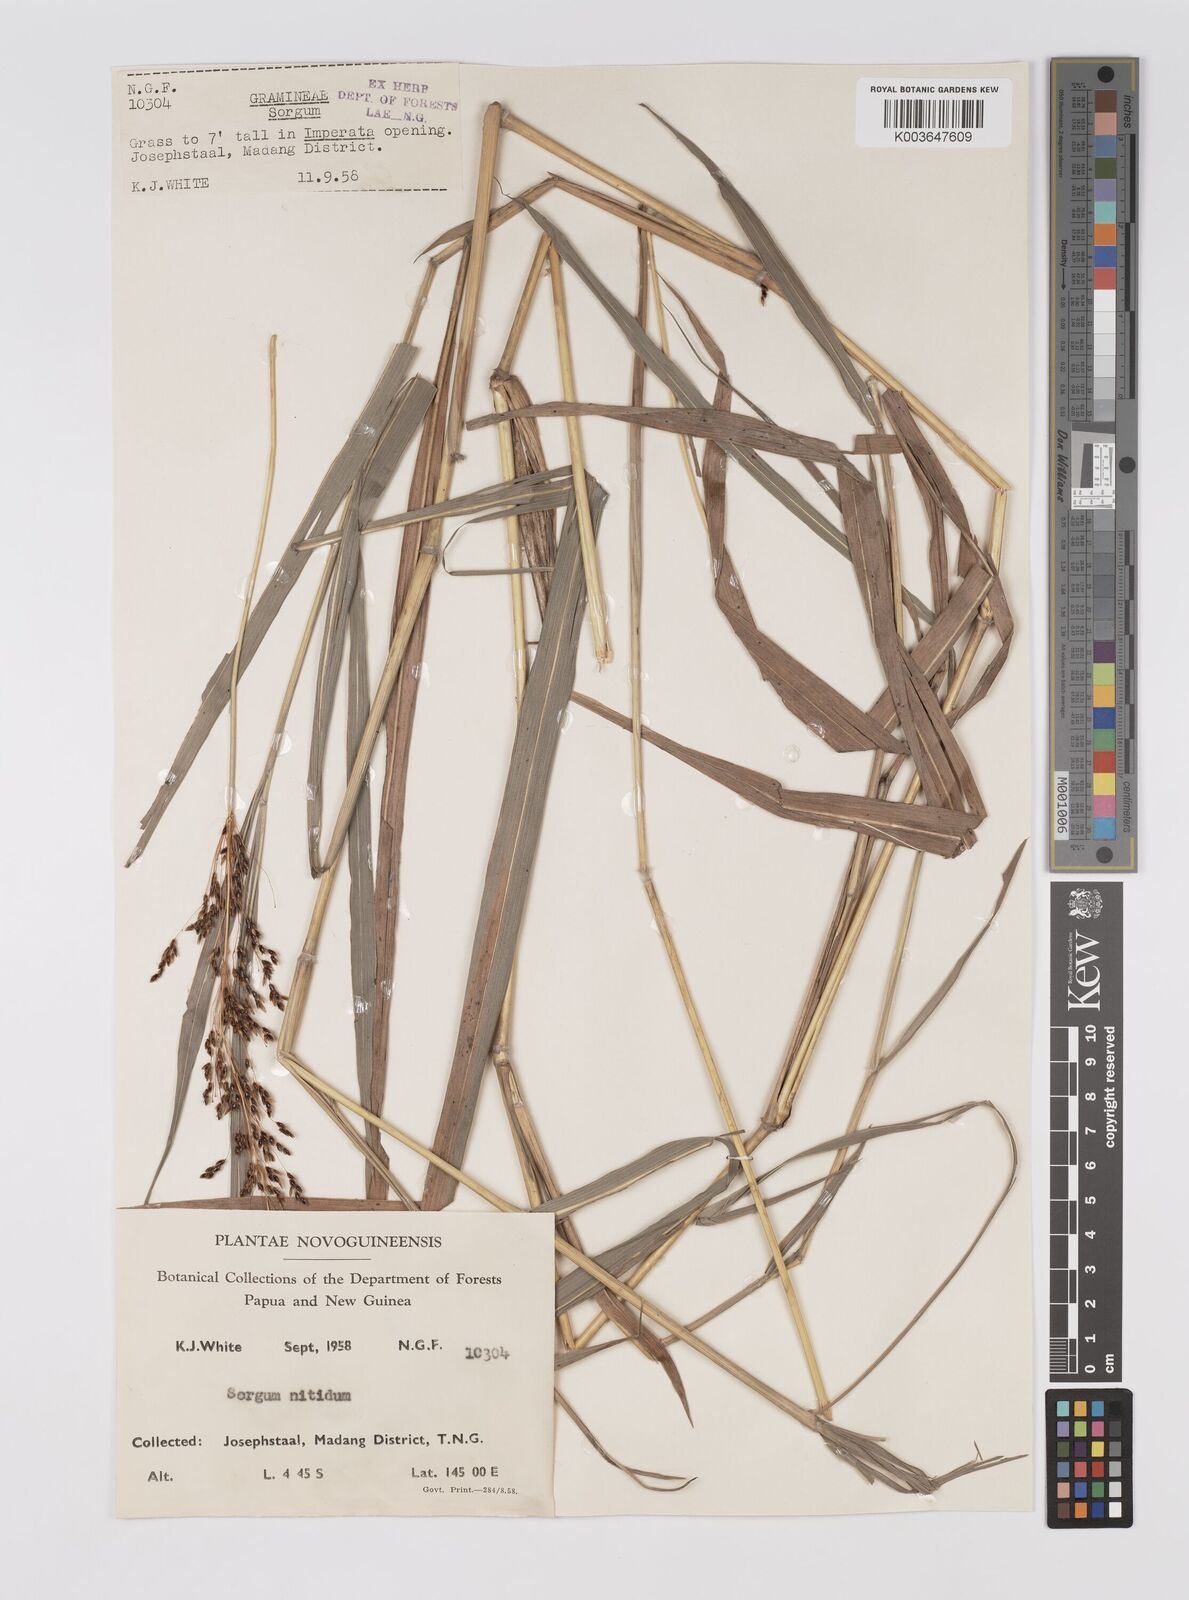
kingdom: Plantae
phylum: Tracheophyta
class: Liliopsida
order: Poales
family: Poaceae
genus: Sorghum
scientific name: Sorghum nitidum
